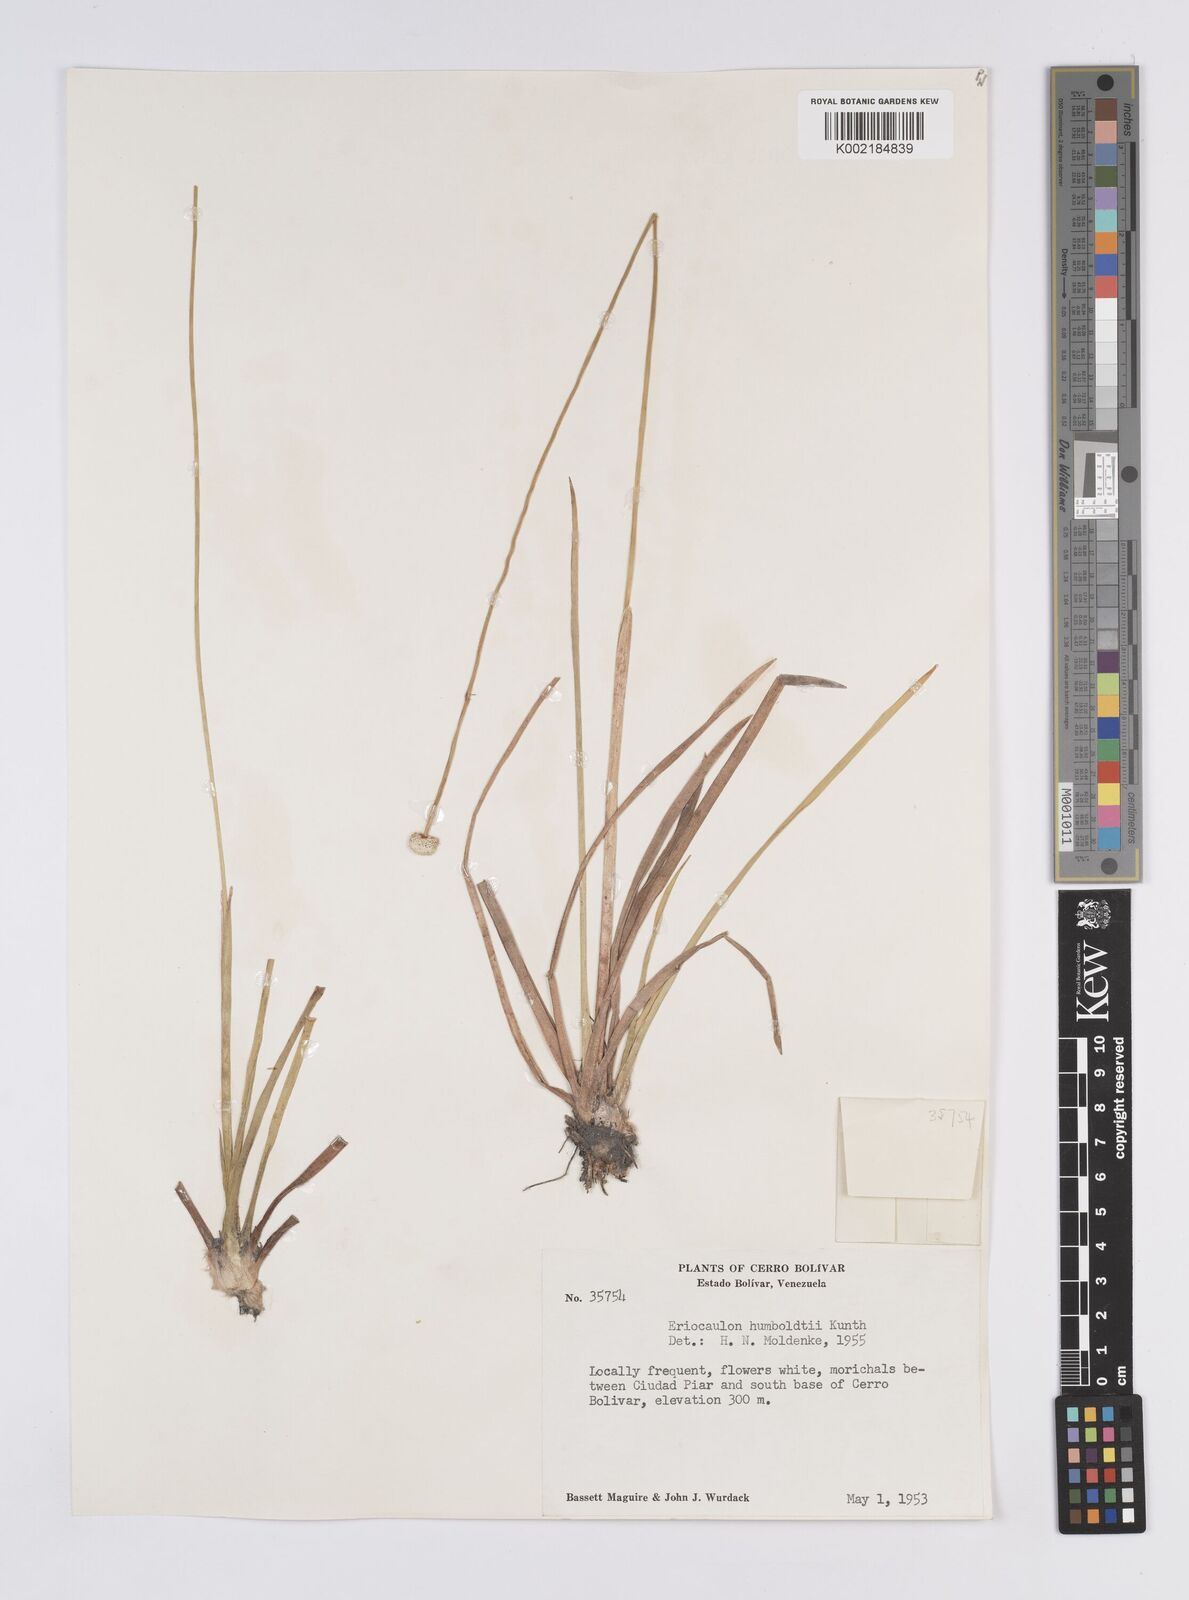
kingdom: Plantae
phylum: Tracheophyta
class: Liliopsida
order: Poales
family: Eriocaulaceae
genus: Eriocaulon
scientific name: Eriocaulon humboldtii
